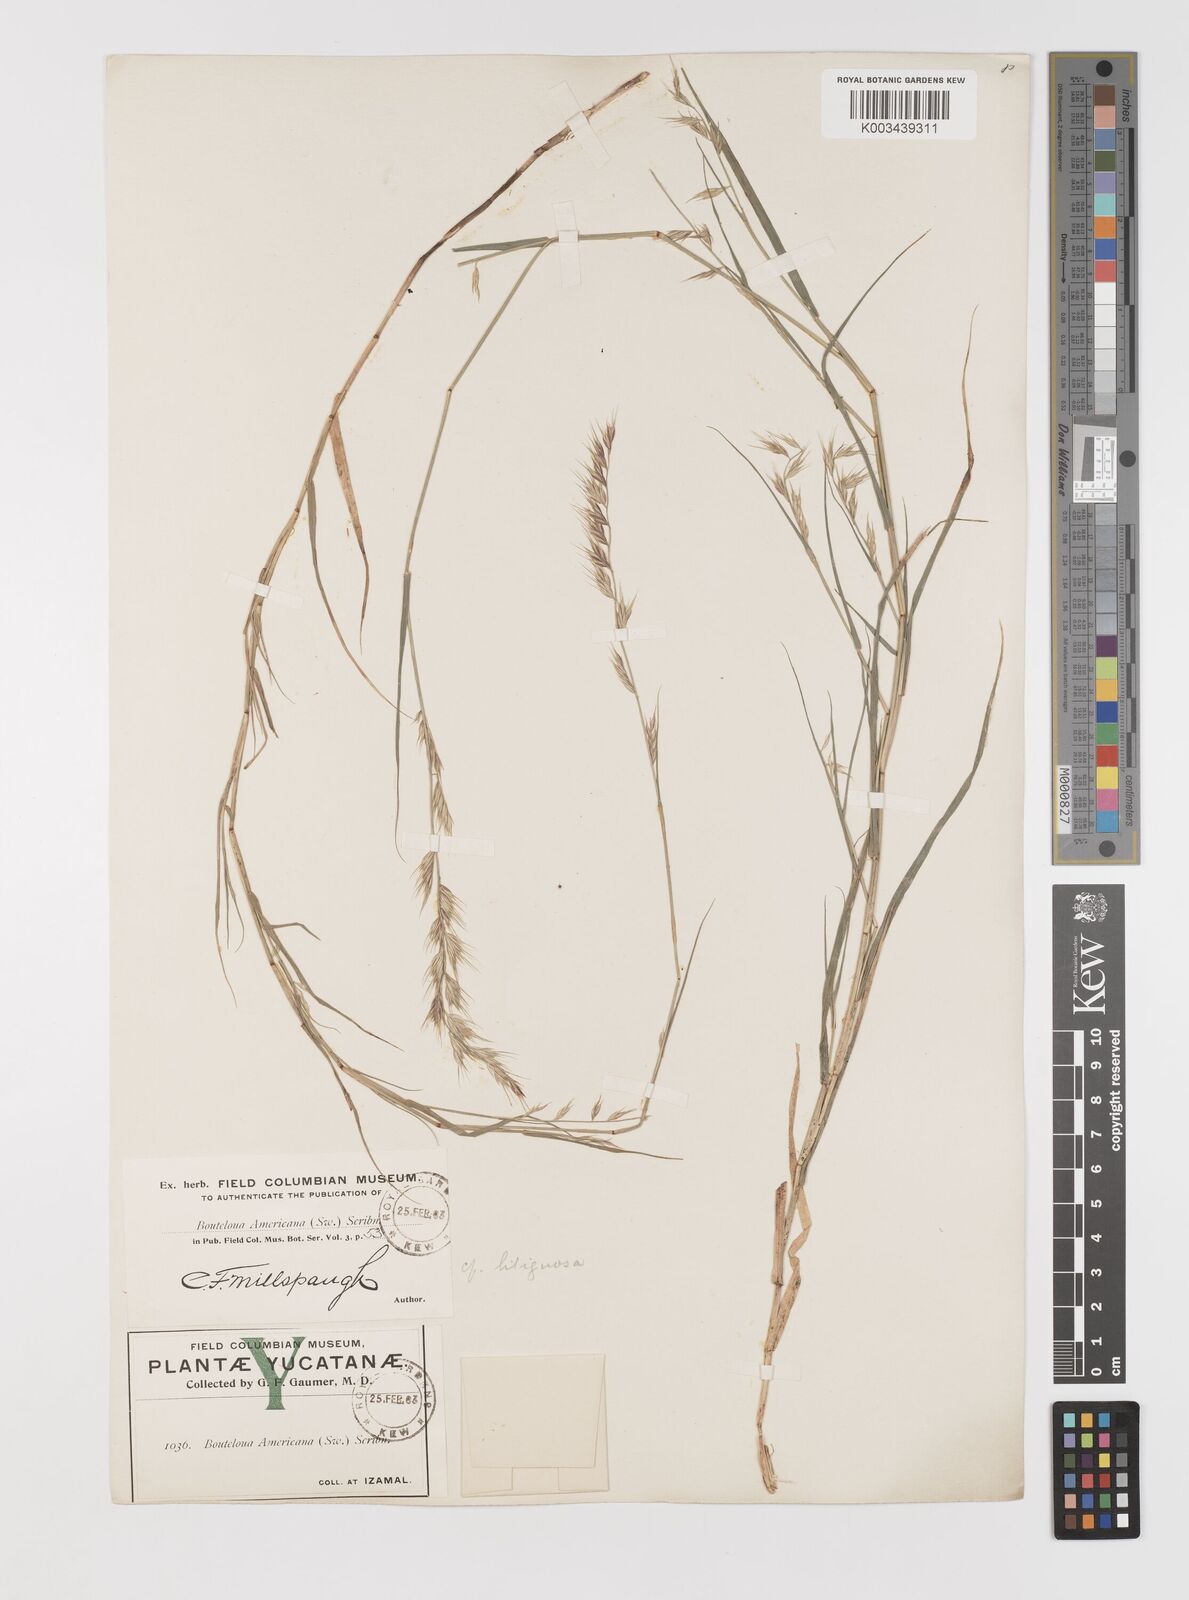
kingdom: Plantae
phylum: Tracheophyta
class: Liliopsida
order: Poales
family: Poaceae
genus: Bouteloua
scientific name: Bouteloua repens
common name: Slender grama
